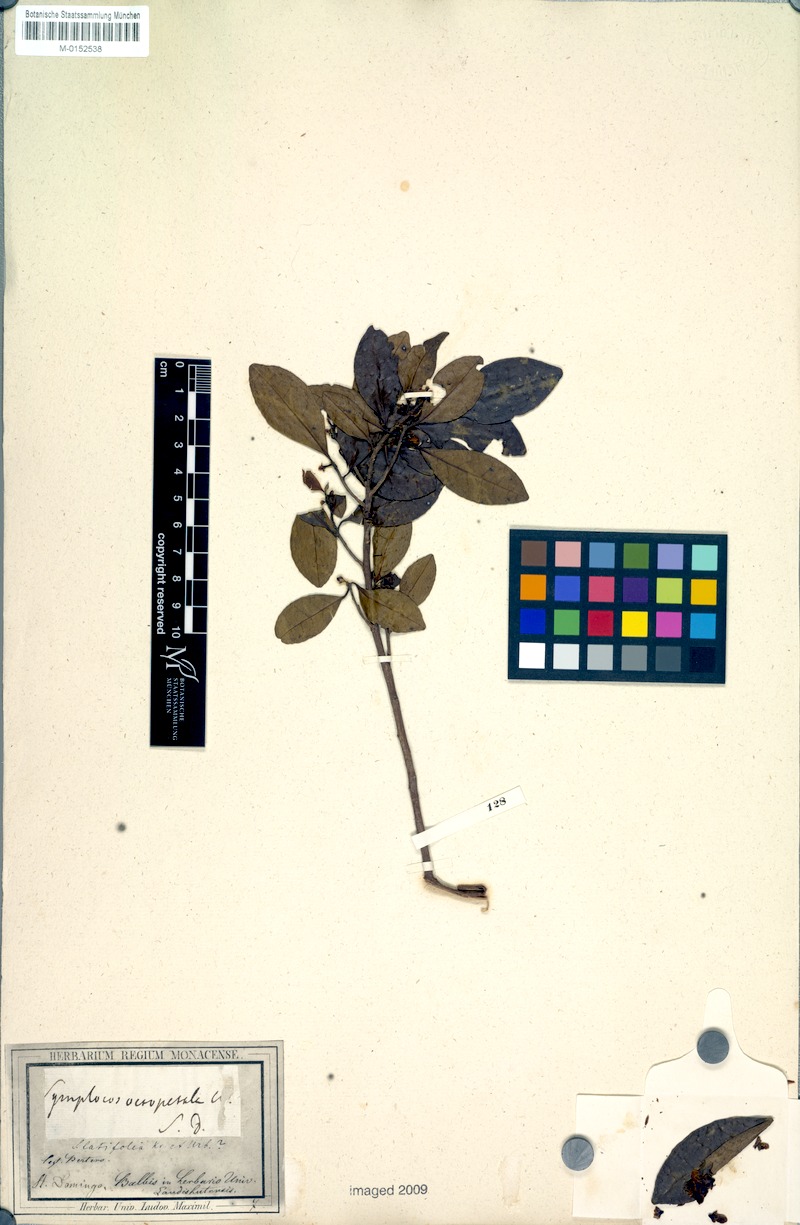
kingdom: Plantae
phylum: Tracheophyta
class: Magnoliopsida
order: Ericales
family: Symplocaceae
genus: Symplocos
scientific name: Symplocos latifolia
